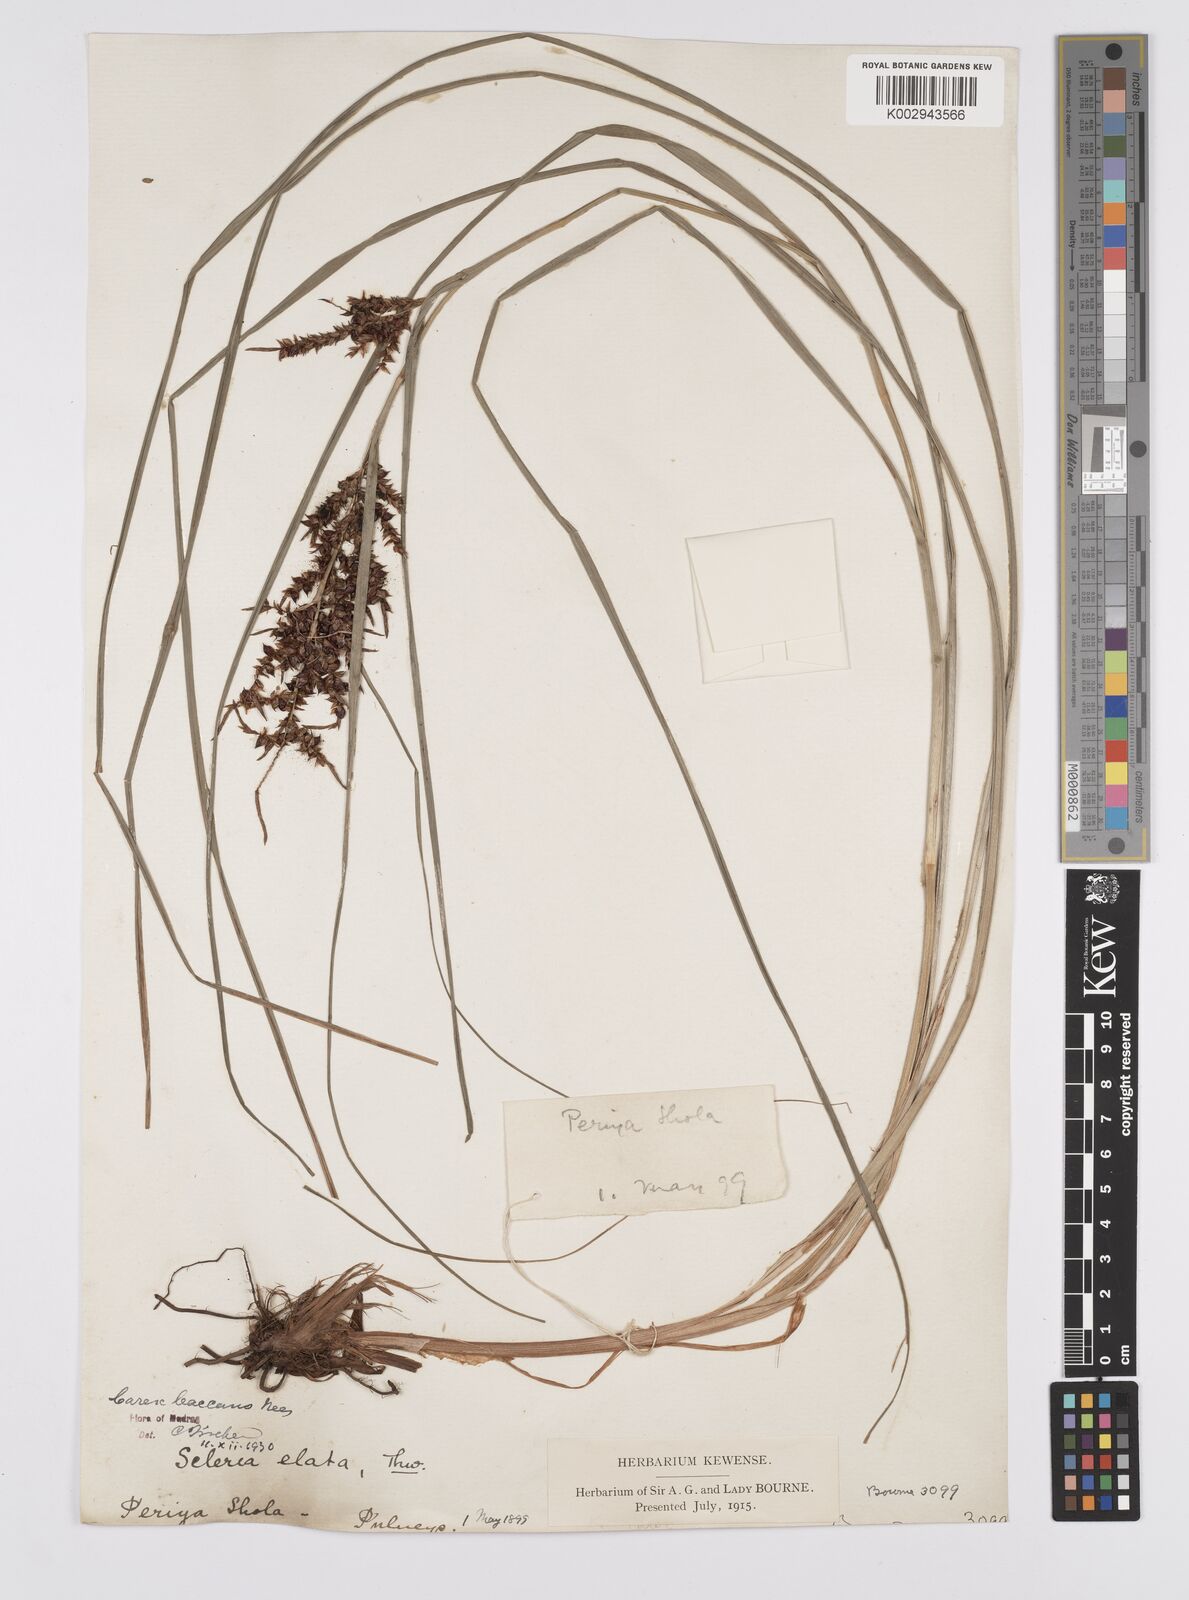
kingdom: Plantae
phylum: Tracheophyta
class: Liliopsida
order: Poales
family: Cyperaceae
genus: Carex
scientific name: Carex baccans
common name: Crimson seeded sedge
